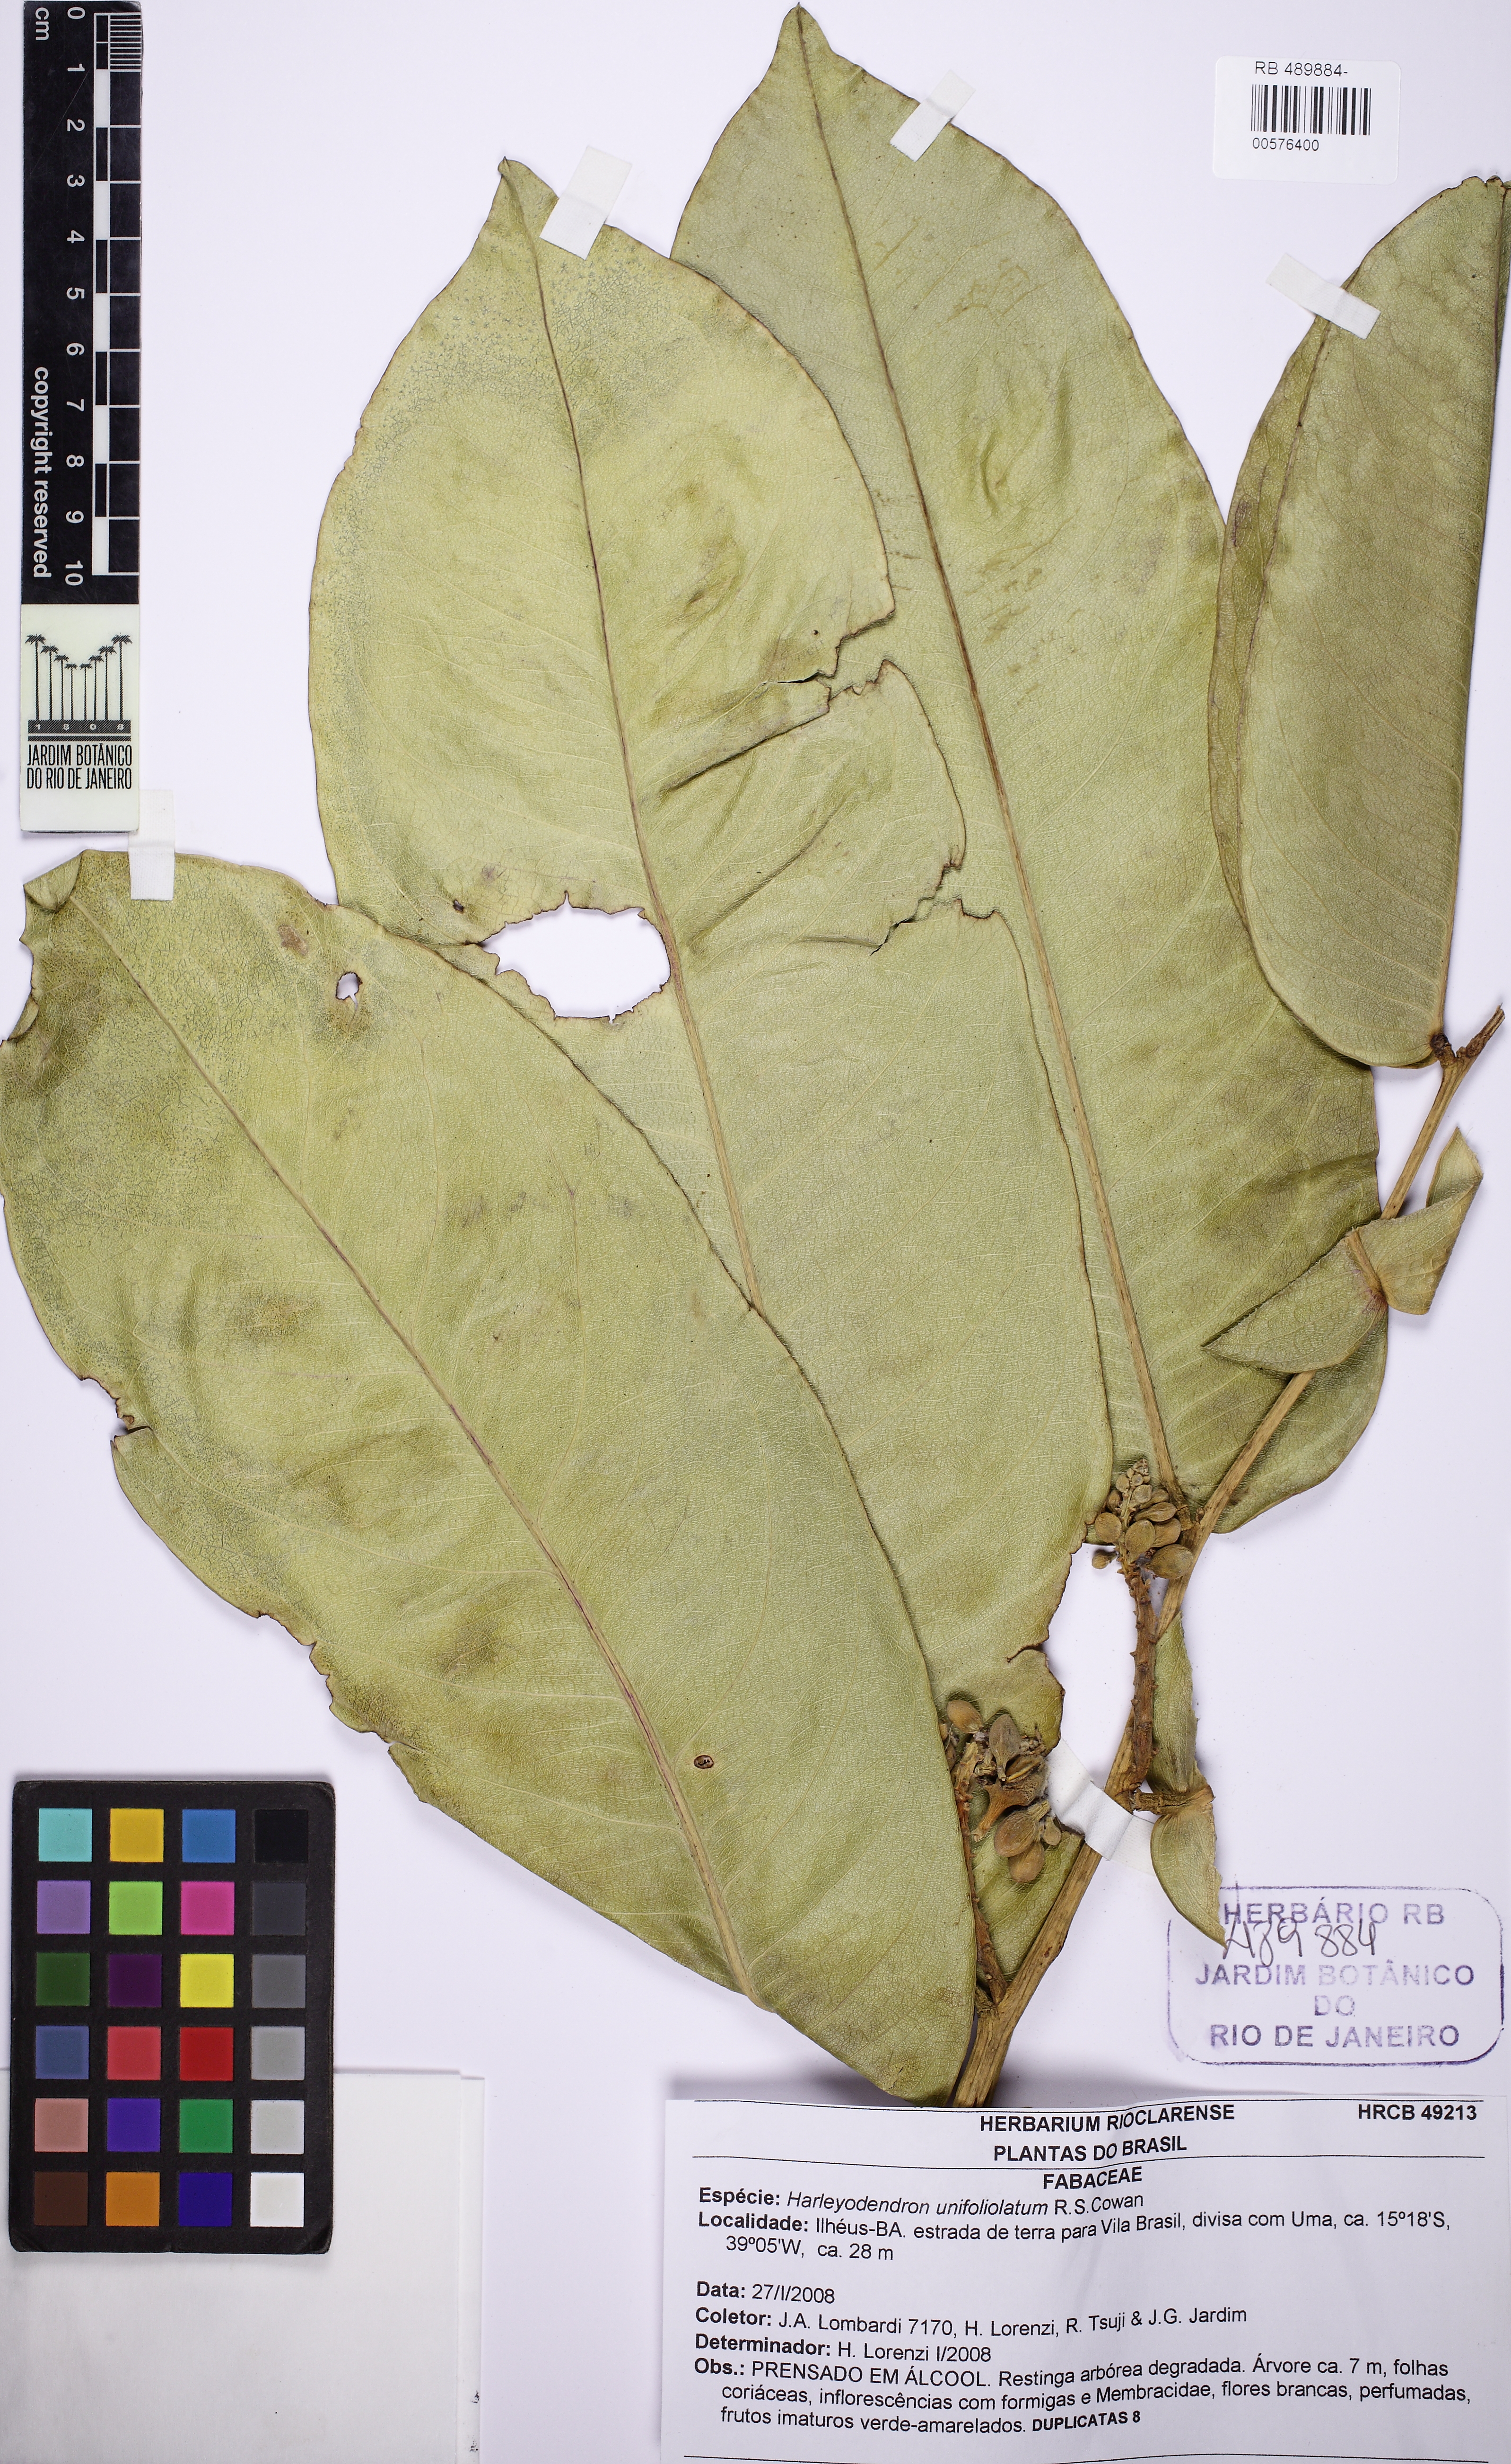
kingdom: Plantae
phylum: Tracheophyta
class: Magnoliopsida
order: Fabales
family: Fabaceae
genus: Harleyodendron
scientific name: Harleyodendron unifoliolatum
